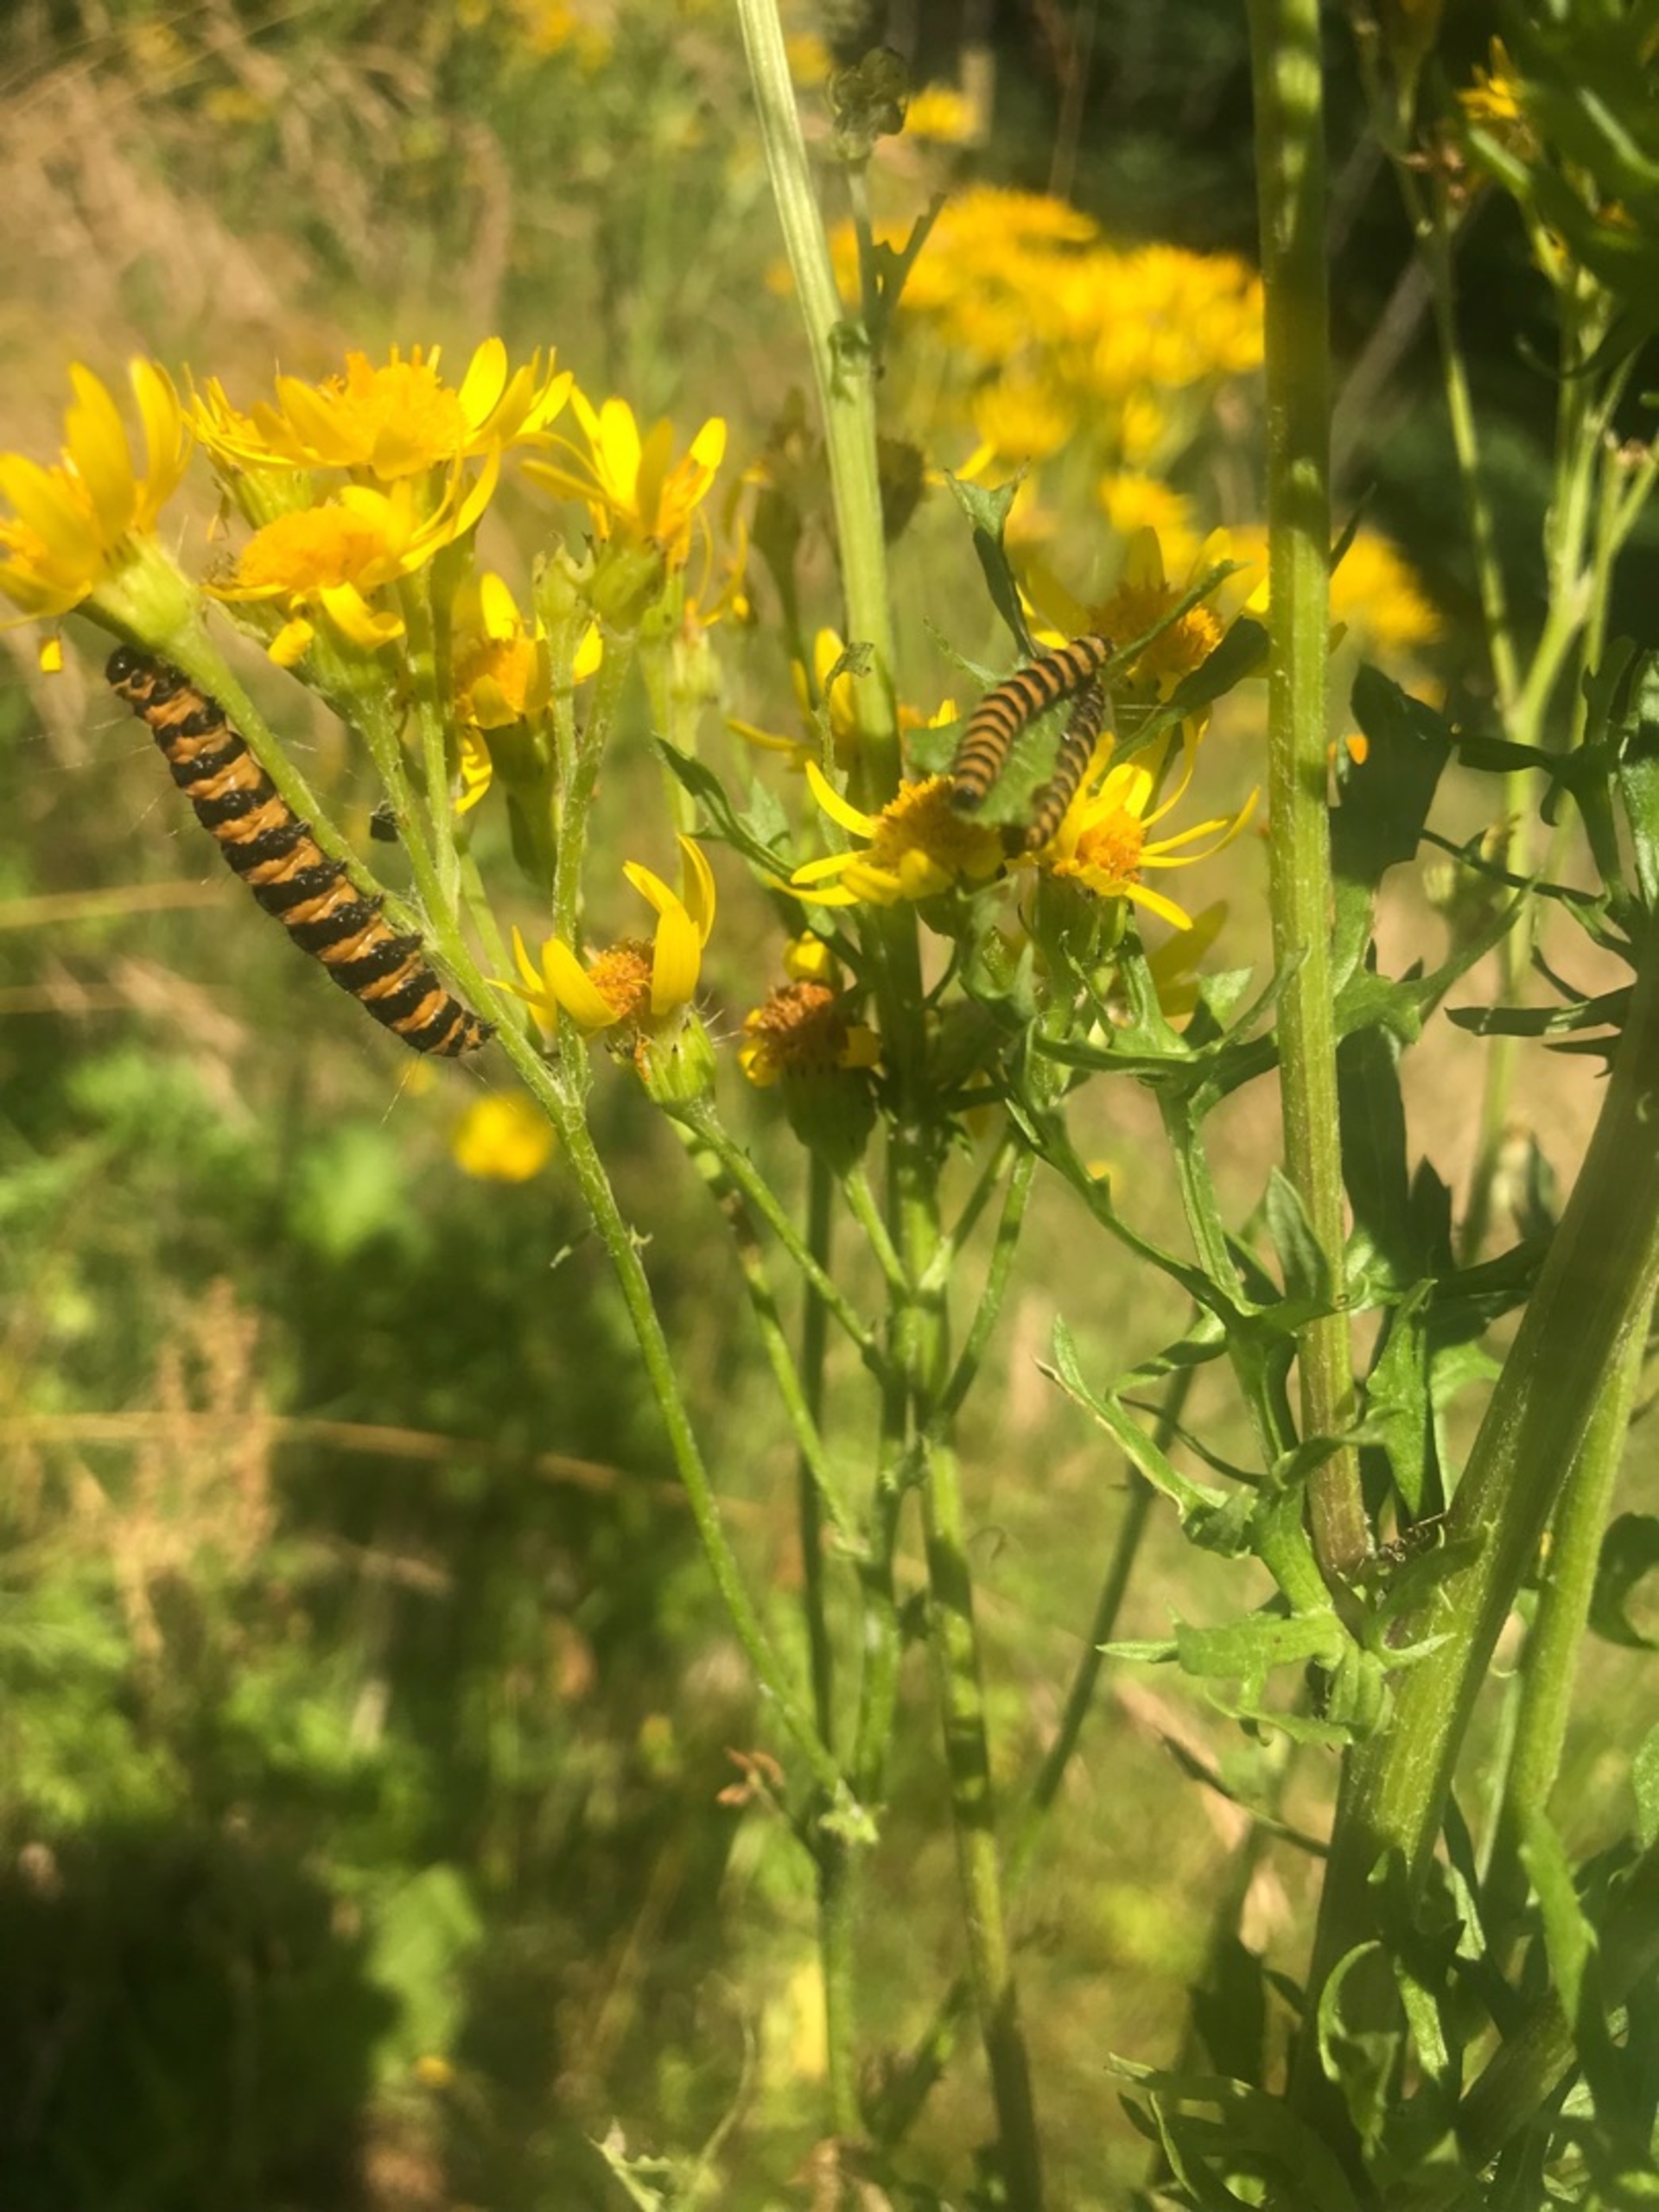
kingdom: Animalia
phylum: Arthropoda
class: Insecta
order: Lepidoptera
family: Erebidae
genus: Tyria
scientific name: Tyria jacobaeae
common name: Blodplet
